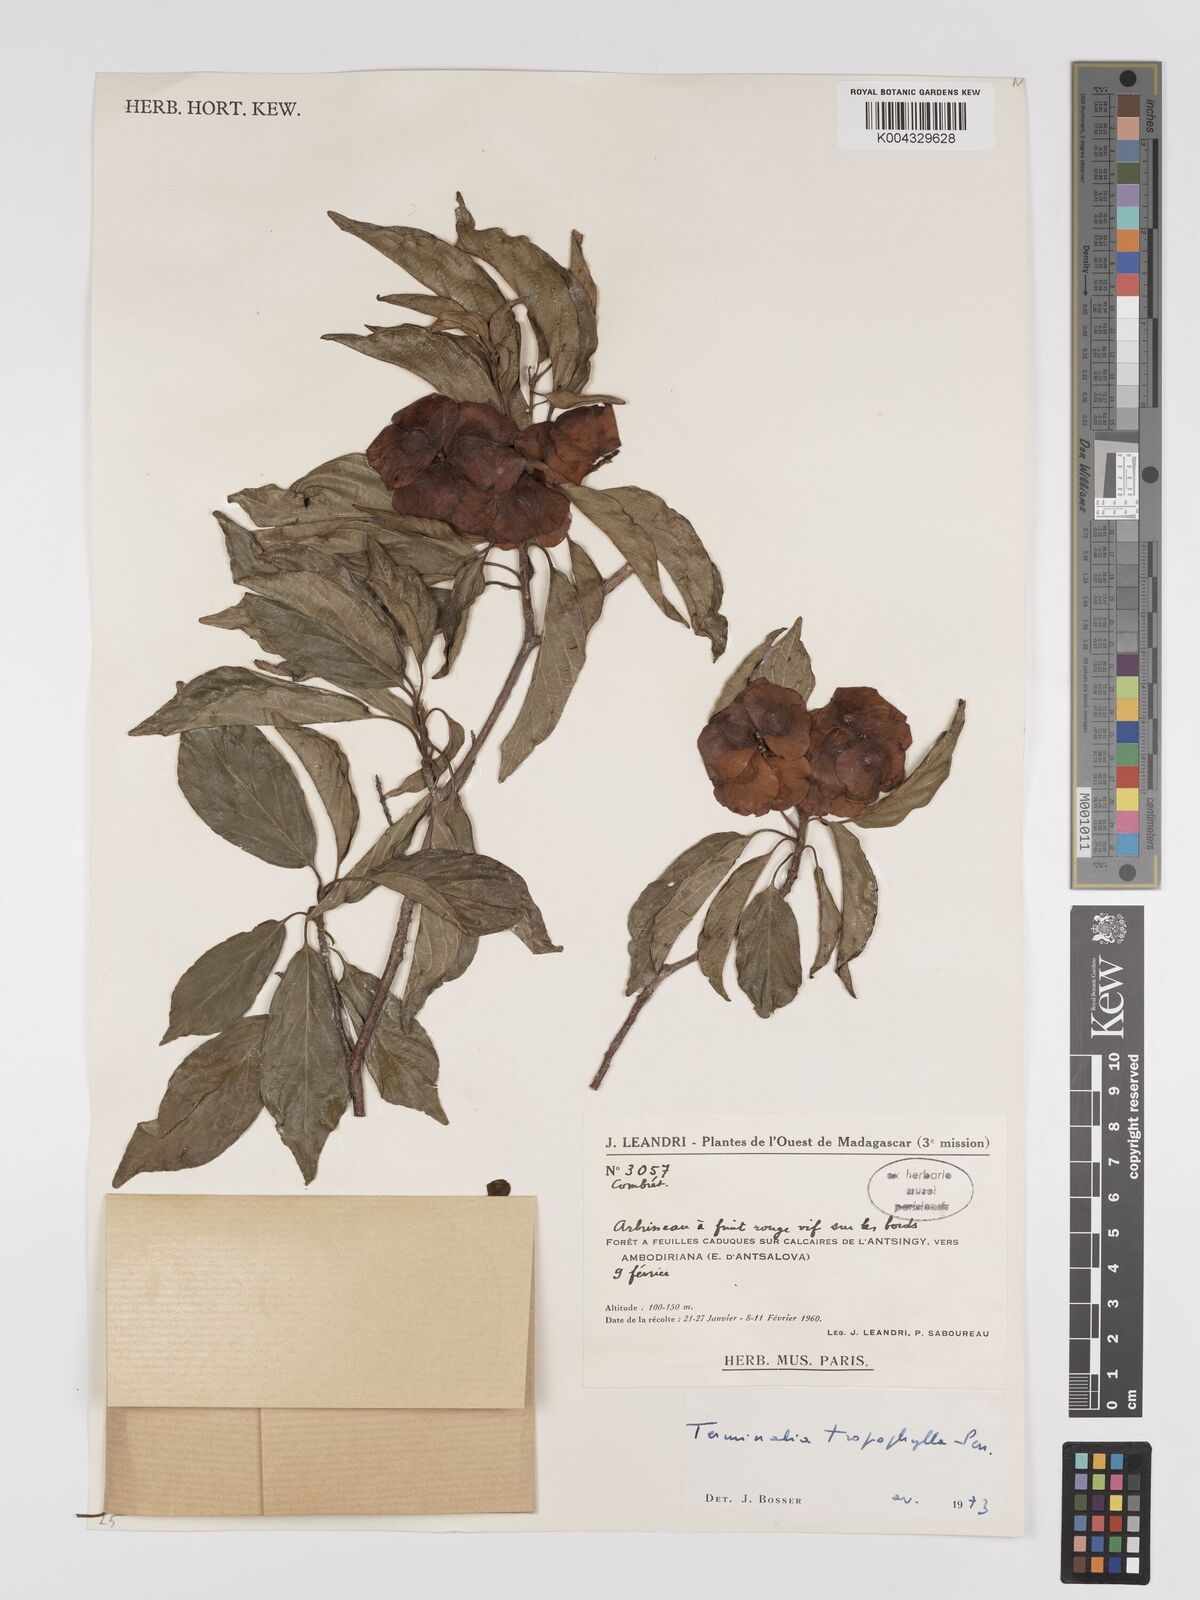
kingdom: Plantae
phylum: Tracheophyta
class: Magnoliopsida
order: Myrtales
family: Combretaceae
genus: Terminalia
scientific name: Terminalia tropophylla
